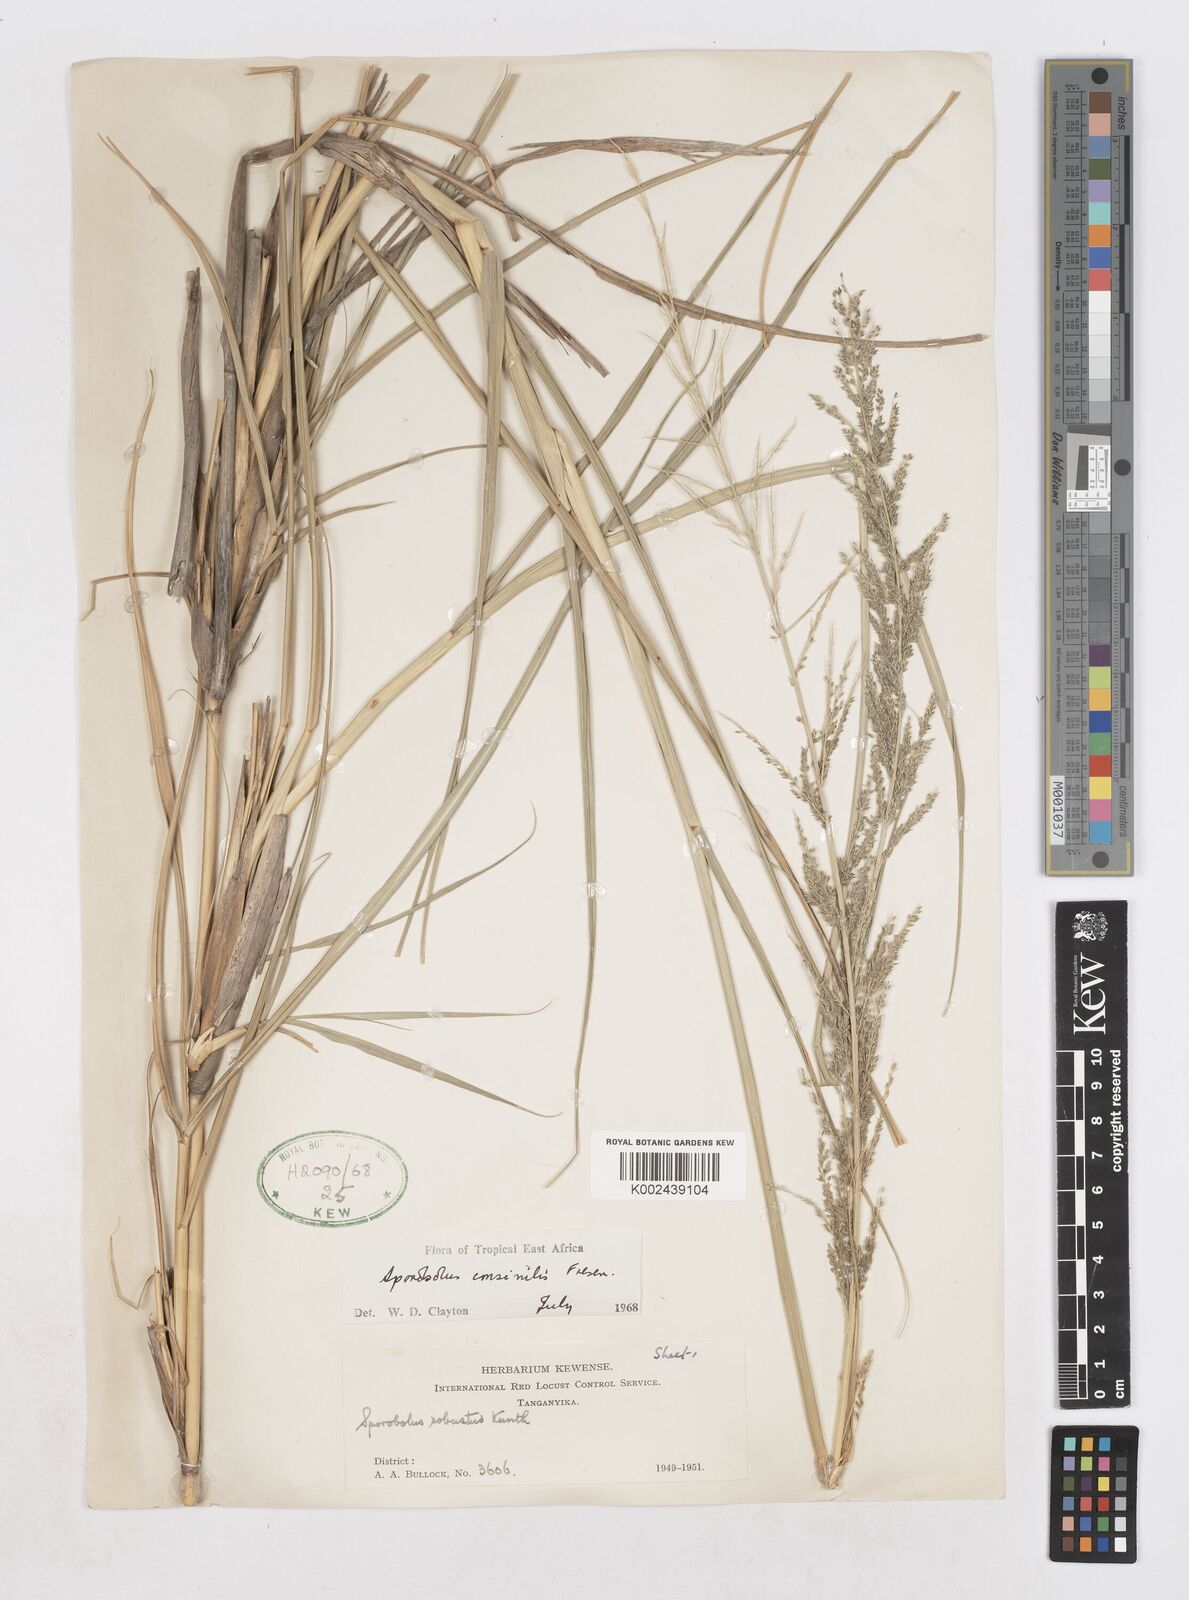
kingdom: Plantae
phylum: Tracheophyta
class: Liliopsida
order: Poales
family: Poaceae
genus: Sporobolus
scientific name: Sporobolus consimilis
